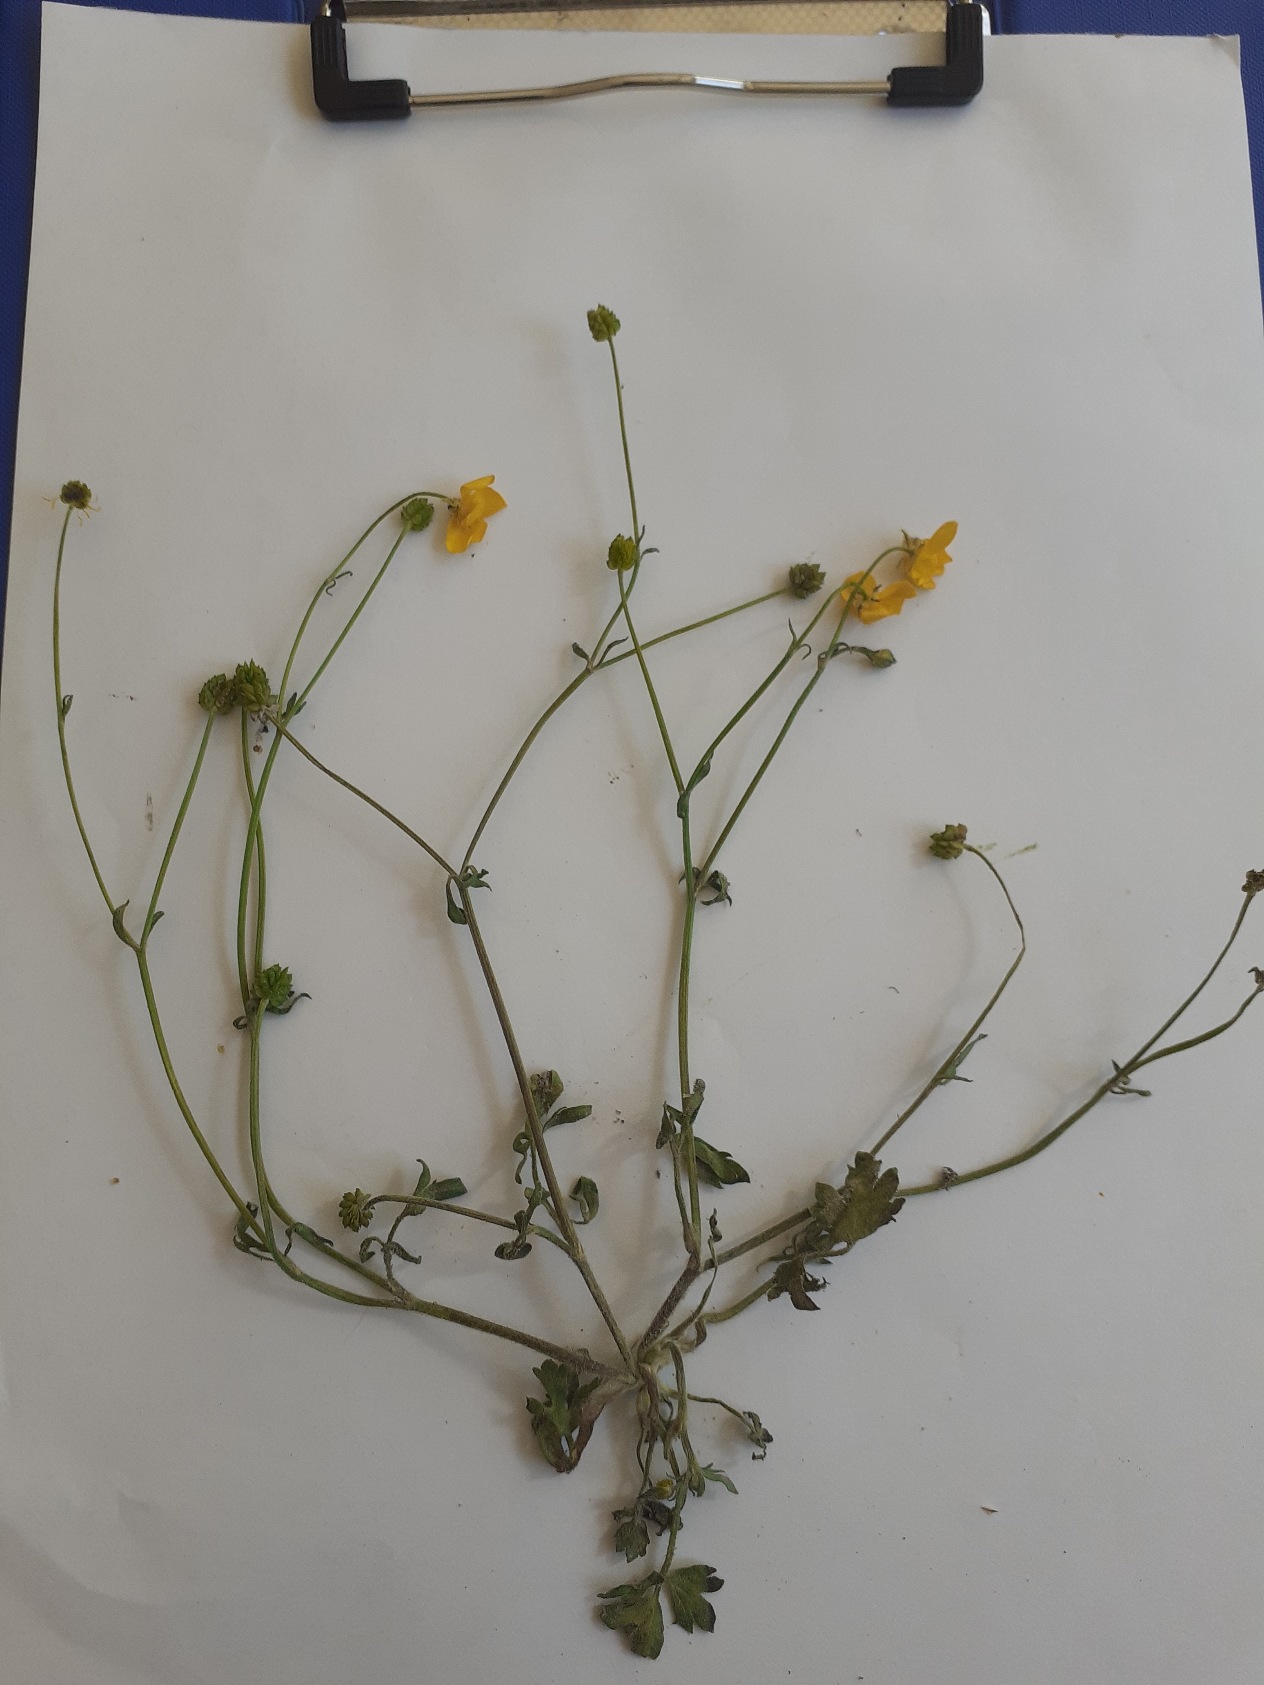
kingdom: Plantae
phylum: Tracheophyta
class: Magnoliopsida
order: Ranunculales
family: Ranunculaceae
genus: Ranunculus
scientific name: Ranunculus sardous
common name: Stivhåret ranunkel
